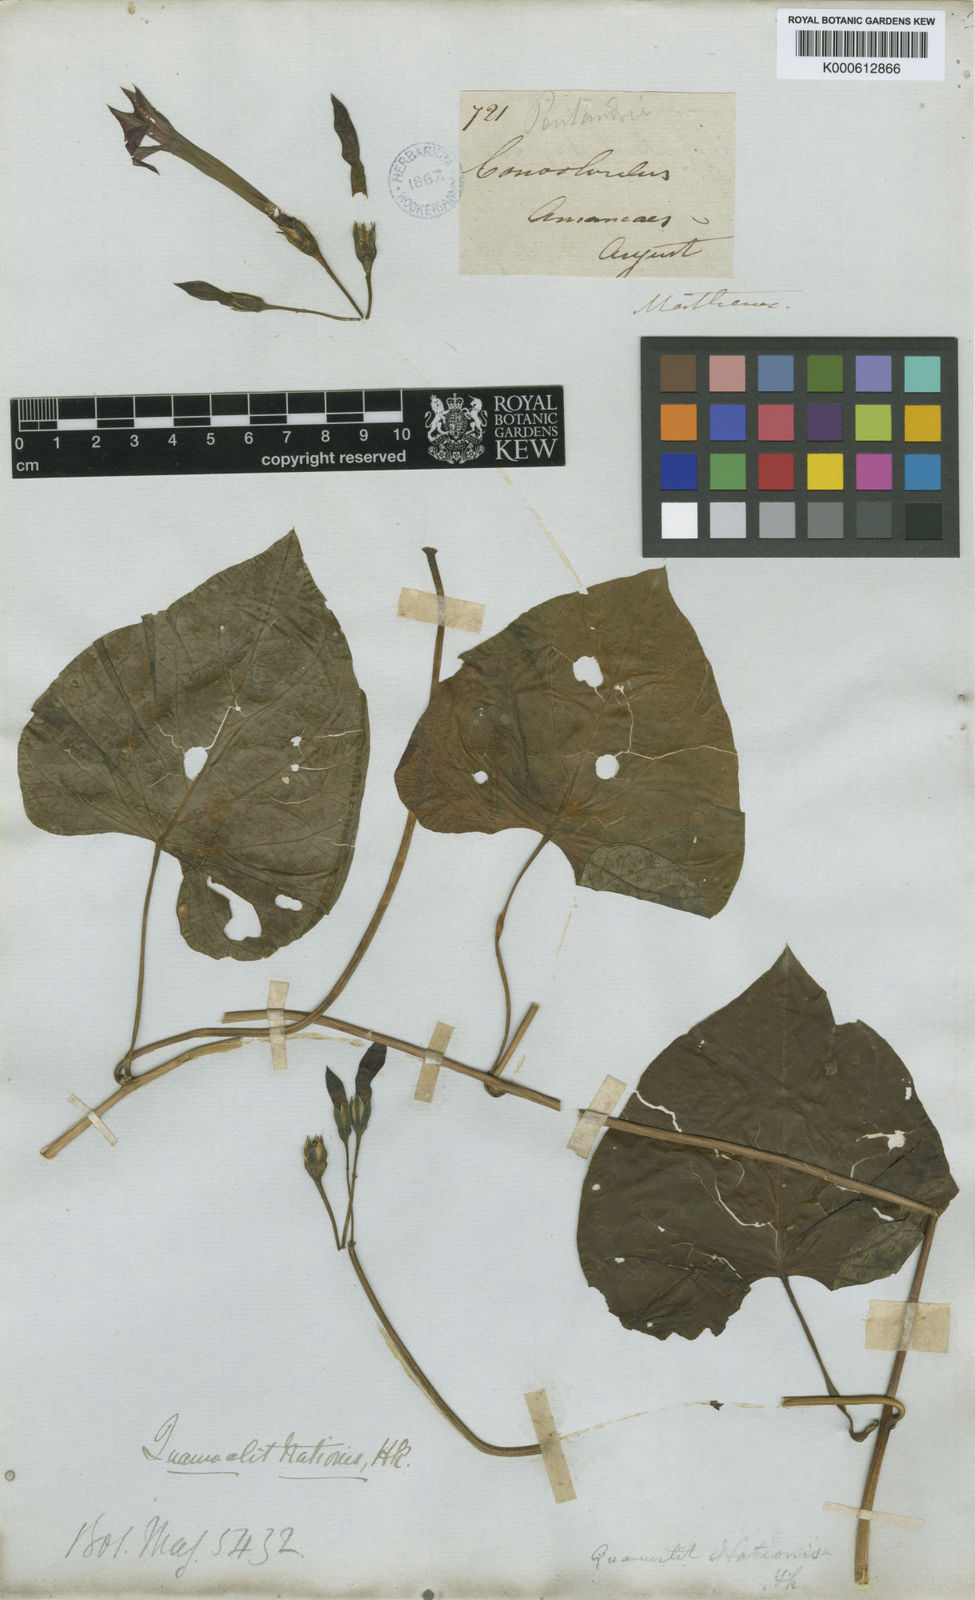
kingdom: Plantae
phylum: Tracheophyta
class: Magnoliopsida
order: Solanales
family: Convolvulaceae
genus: Ipomoea
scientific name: Ipomoea nationis
